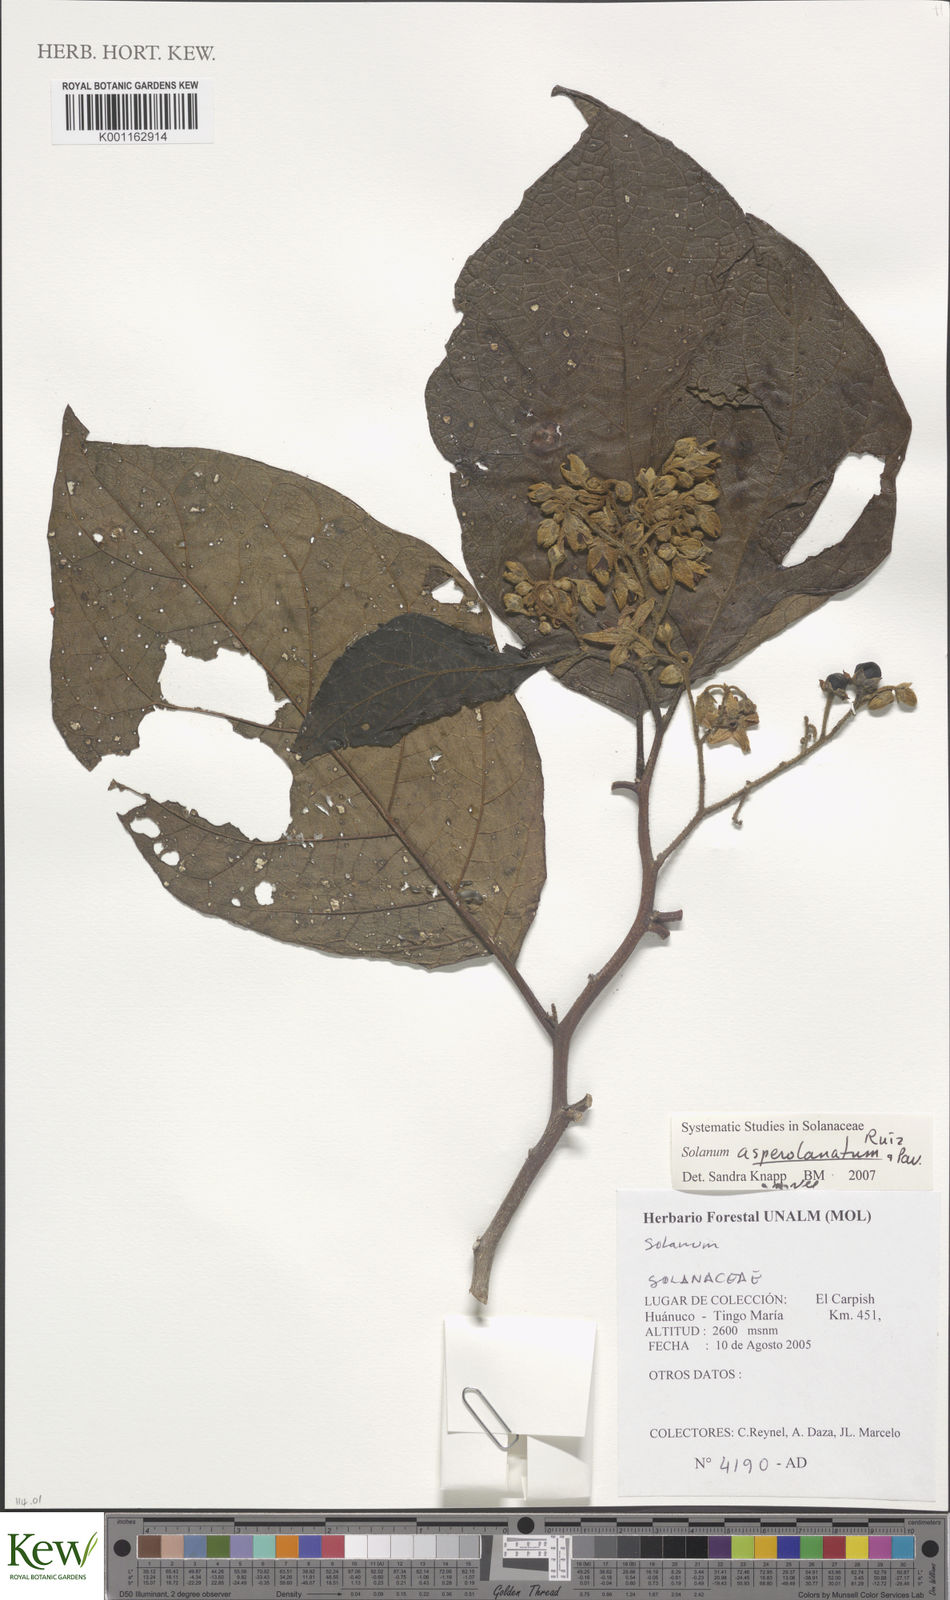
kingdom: Plantae
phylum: Tracheophyta
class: Magnoliopsida
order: Solanales
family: Solanaceae
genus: Solanum
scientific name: Solanum asperolanatum
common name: Devil's-fig
